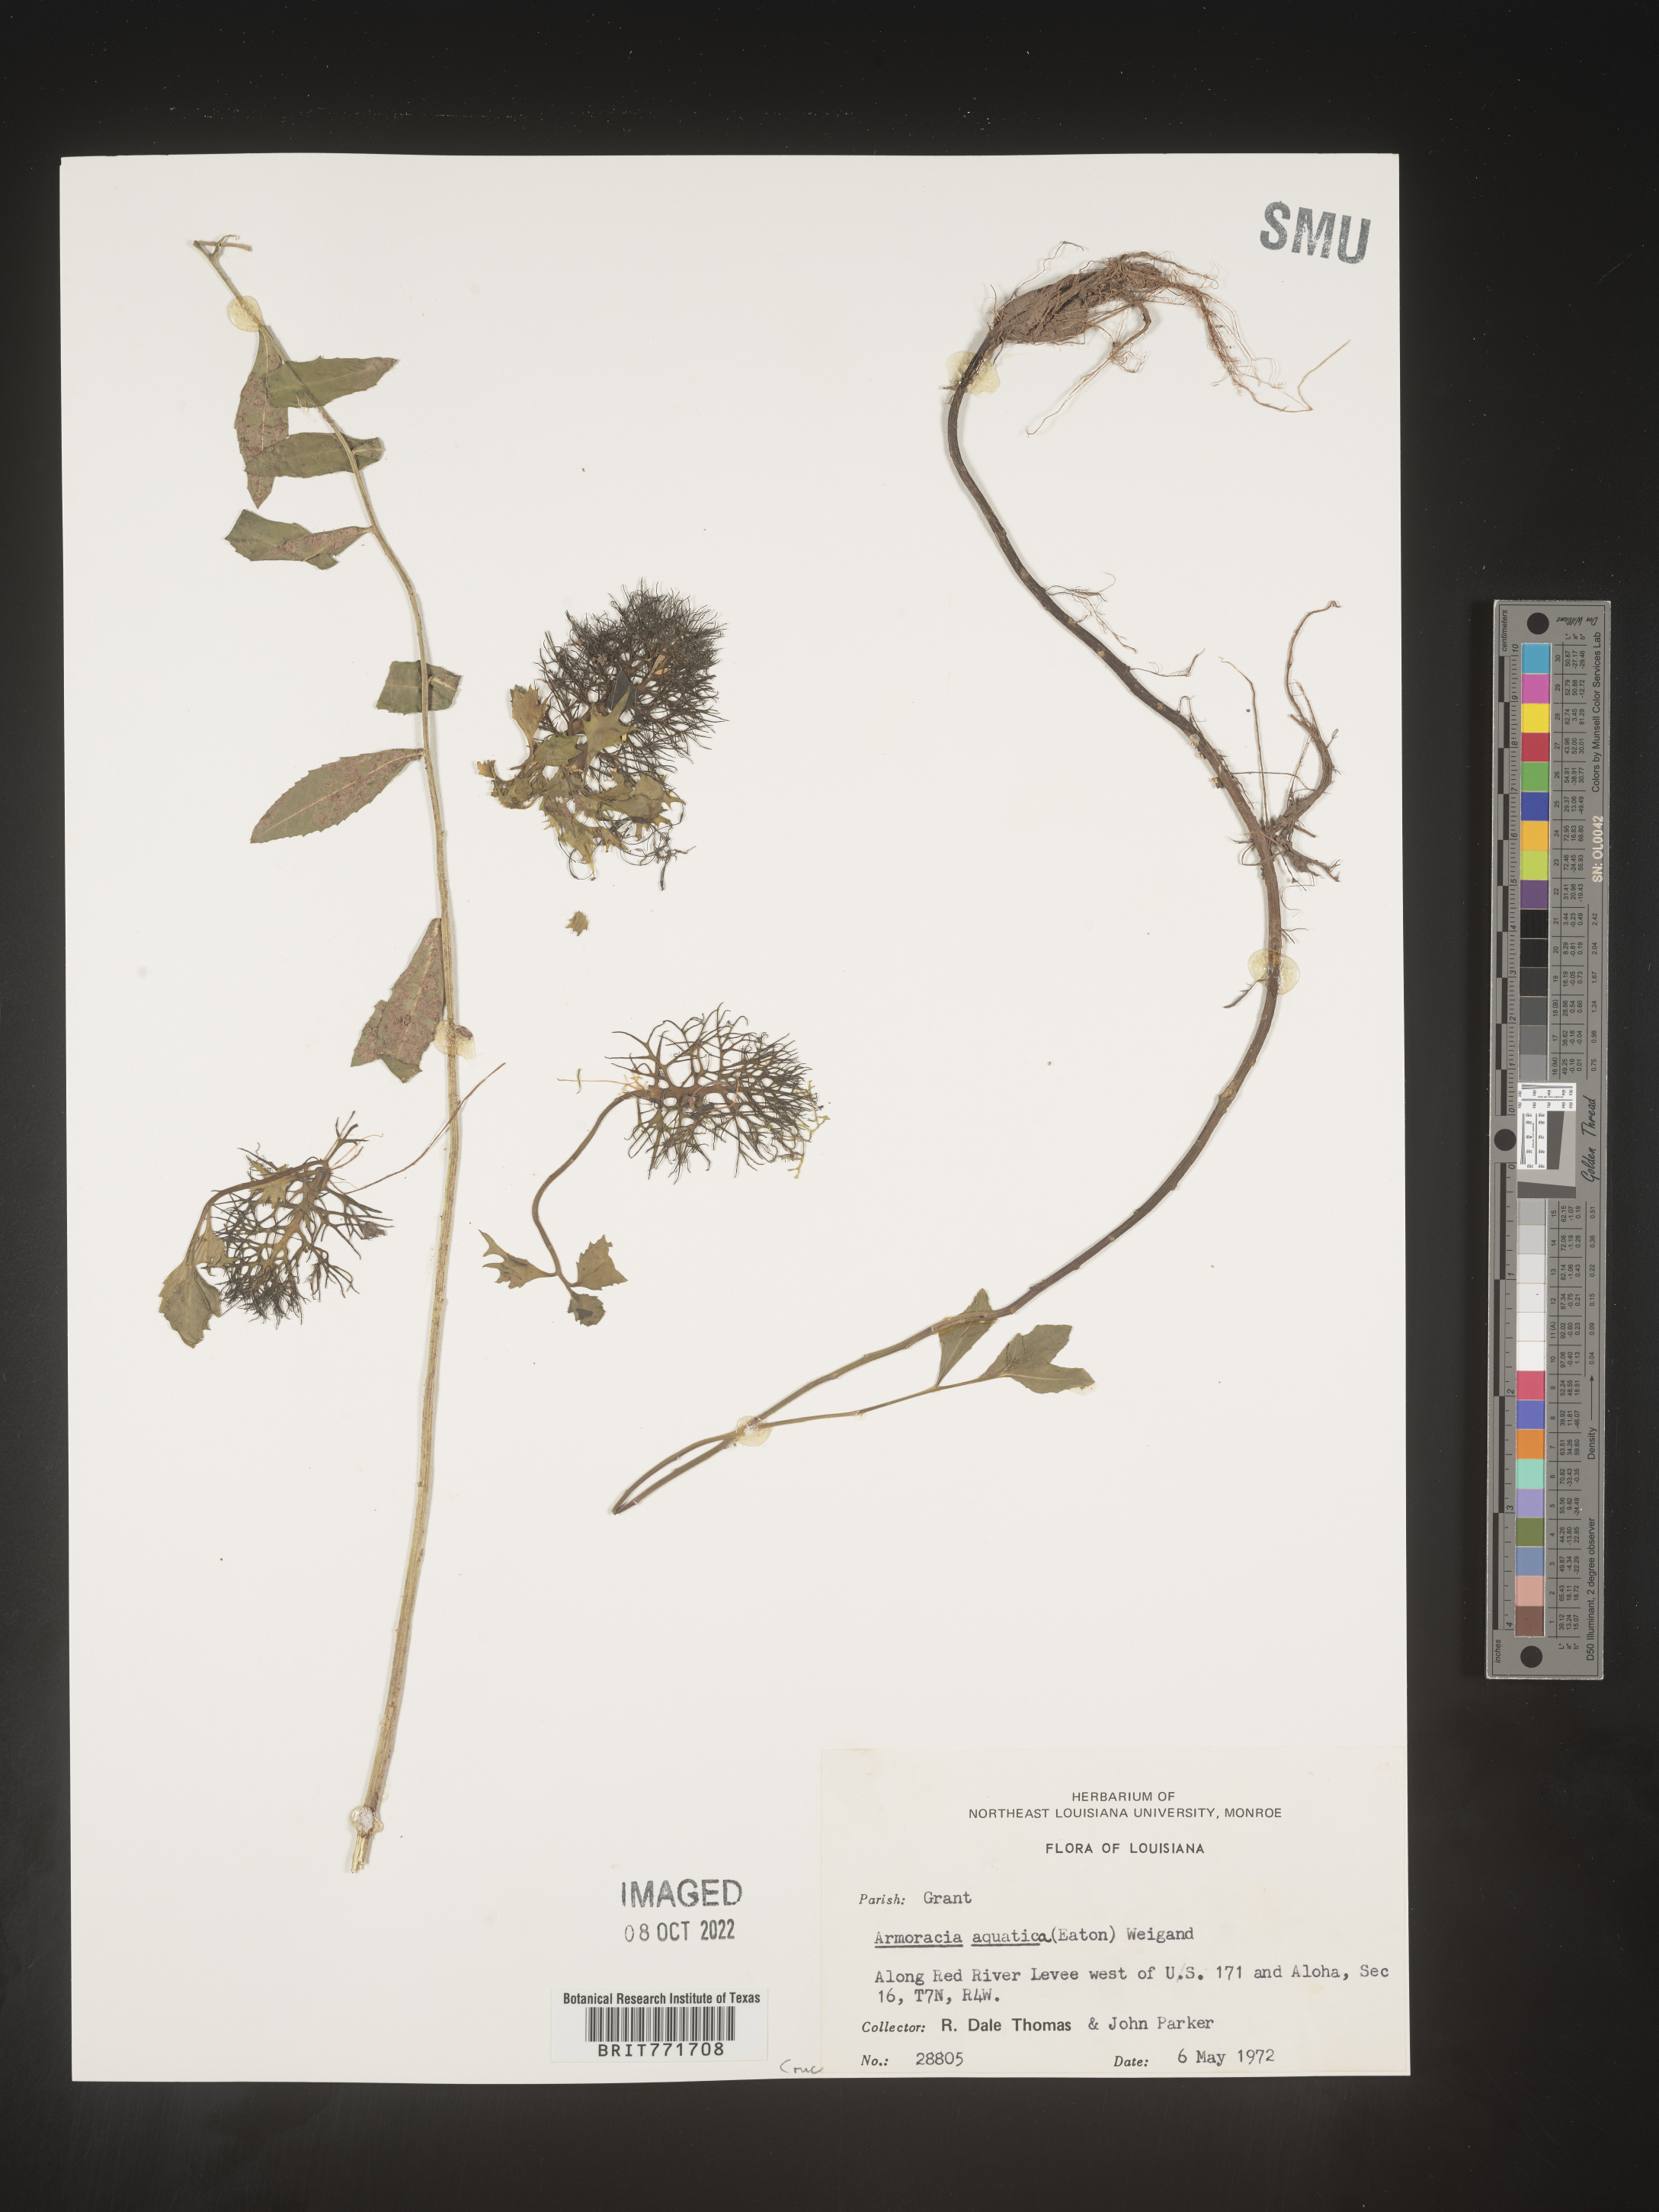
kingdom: Plantae
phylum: Tracheophyta
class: Magnoliopsida
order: Brassicales
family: Brassicaceae
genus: Armoracia
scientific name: Armoracia
